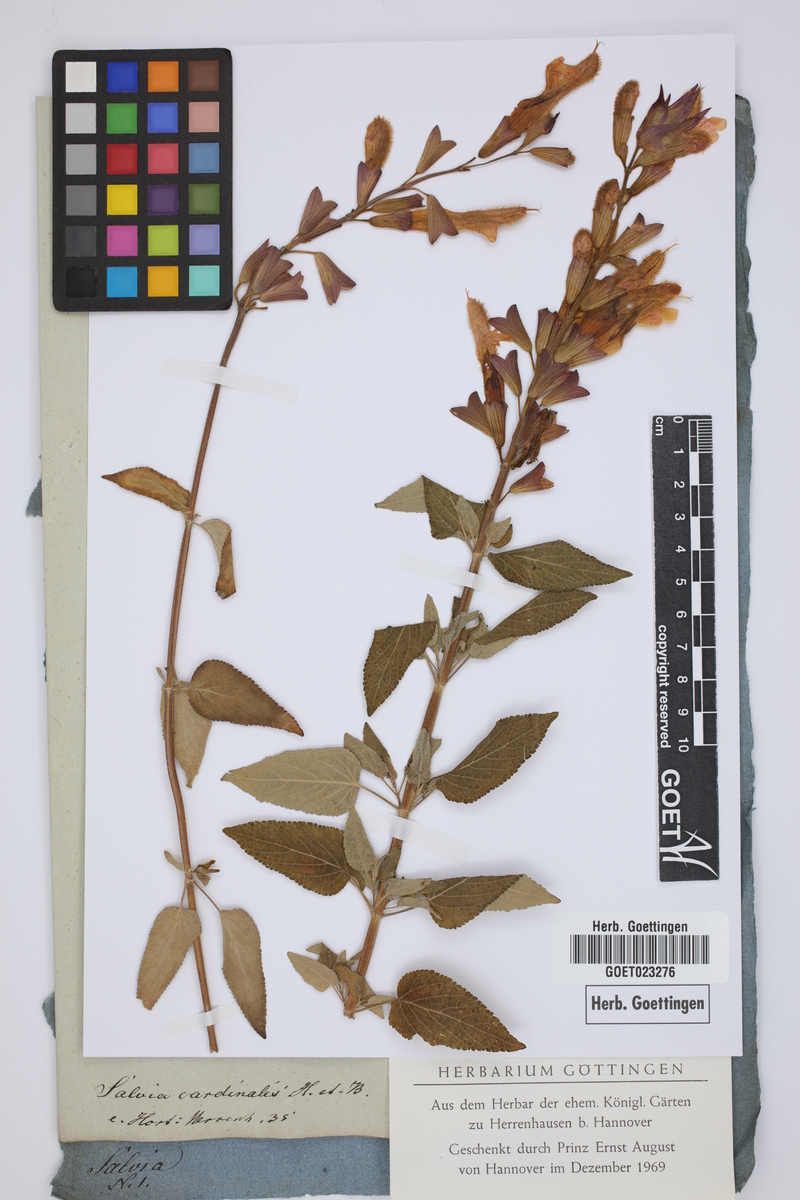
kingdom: Plantae
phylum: Tracheophyta
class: Magnoliopsida
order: Lamiales
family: Lamiaceae
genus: Salvia
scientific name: Salvia fulgens
